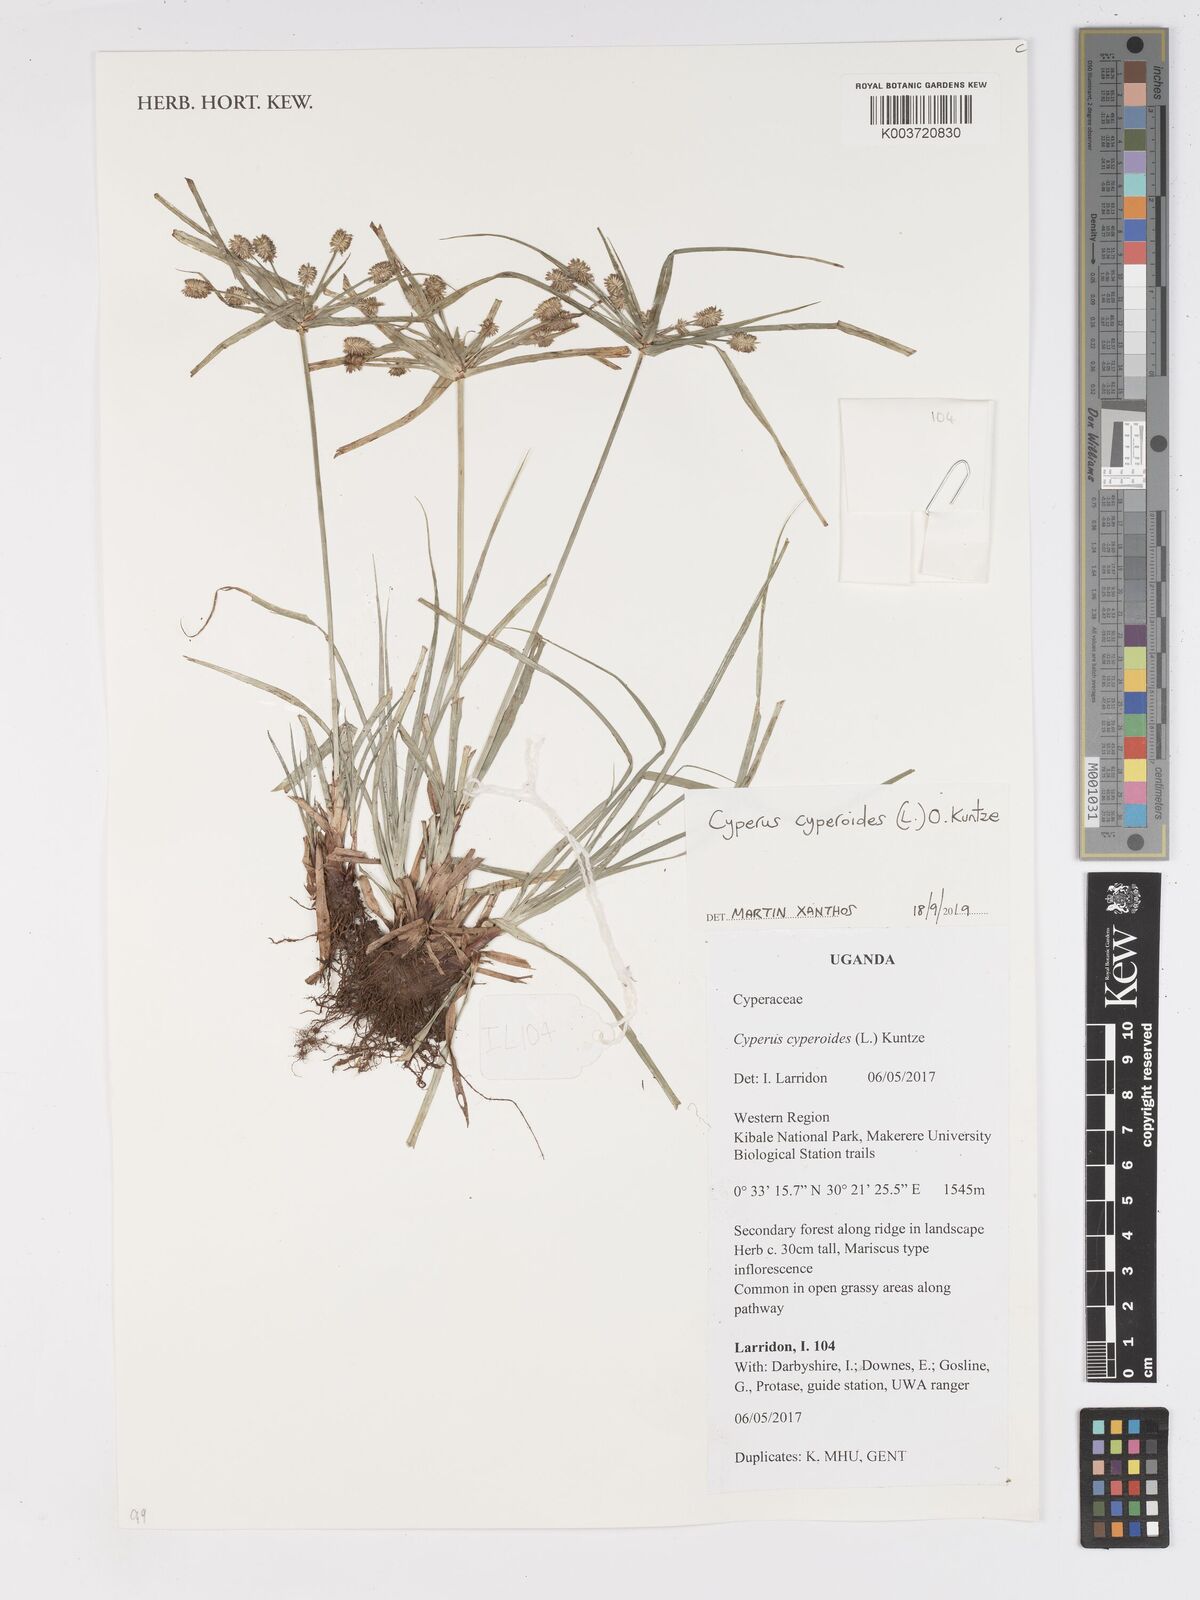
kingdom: Plantae
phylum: Tracheophyta
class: Liliopsida
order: Poales
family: Cyperaceae
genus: Cyperus
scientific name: Cyperus cyperoides
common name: Pacific island flat sedge
